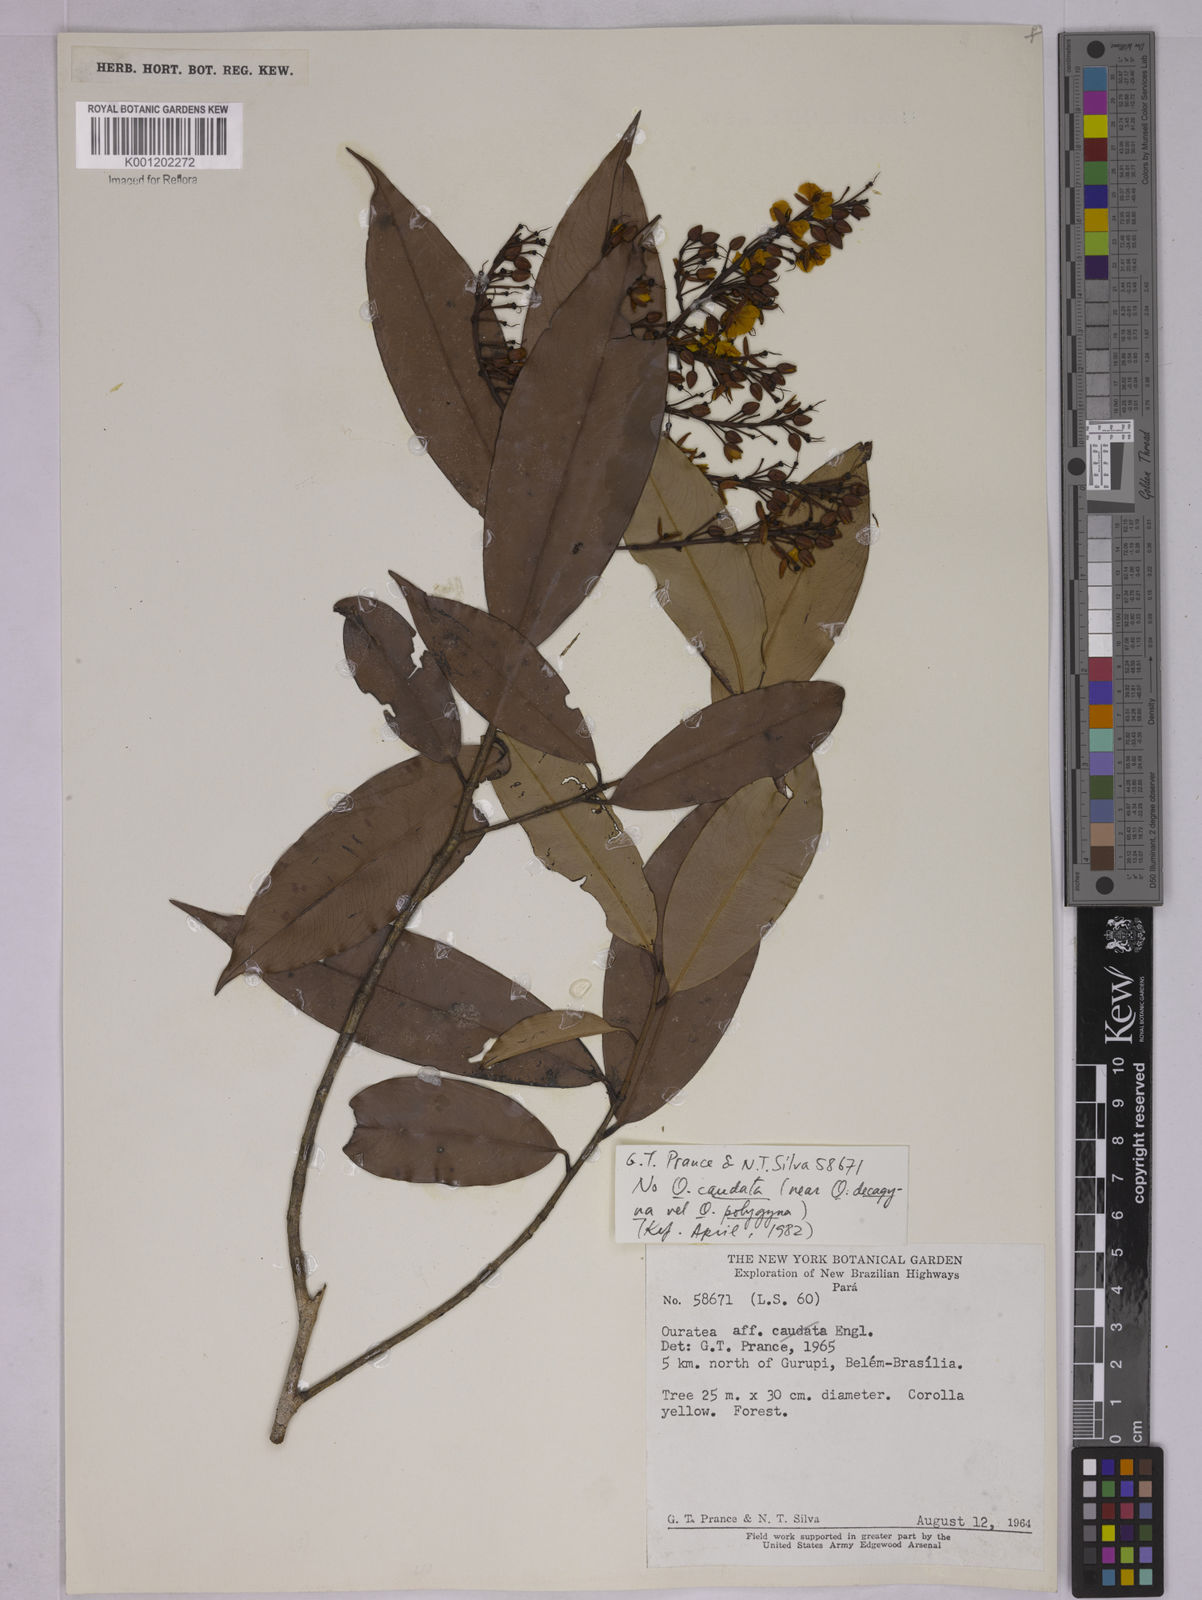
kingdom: Plantae
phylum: Tracheophyta
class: Magnoliopsida
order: Malpighiales
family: Ochnaceae
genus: Ouratea
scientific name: Ouratea
